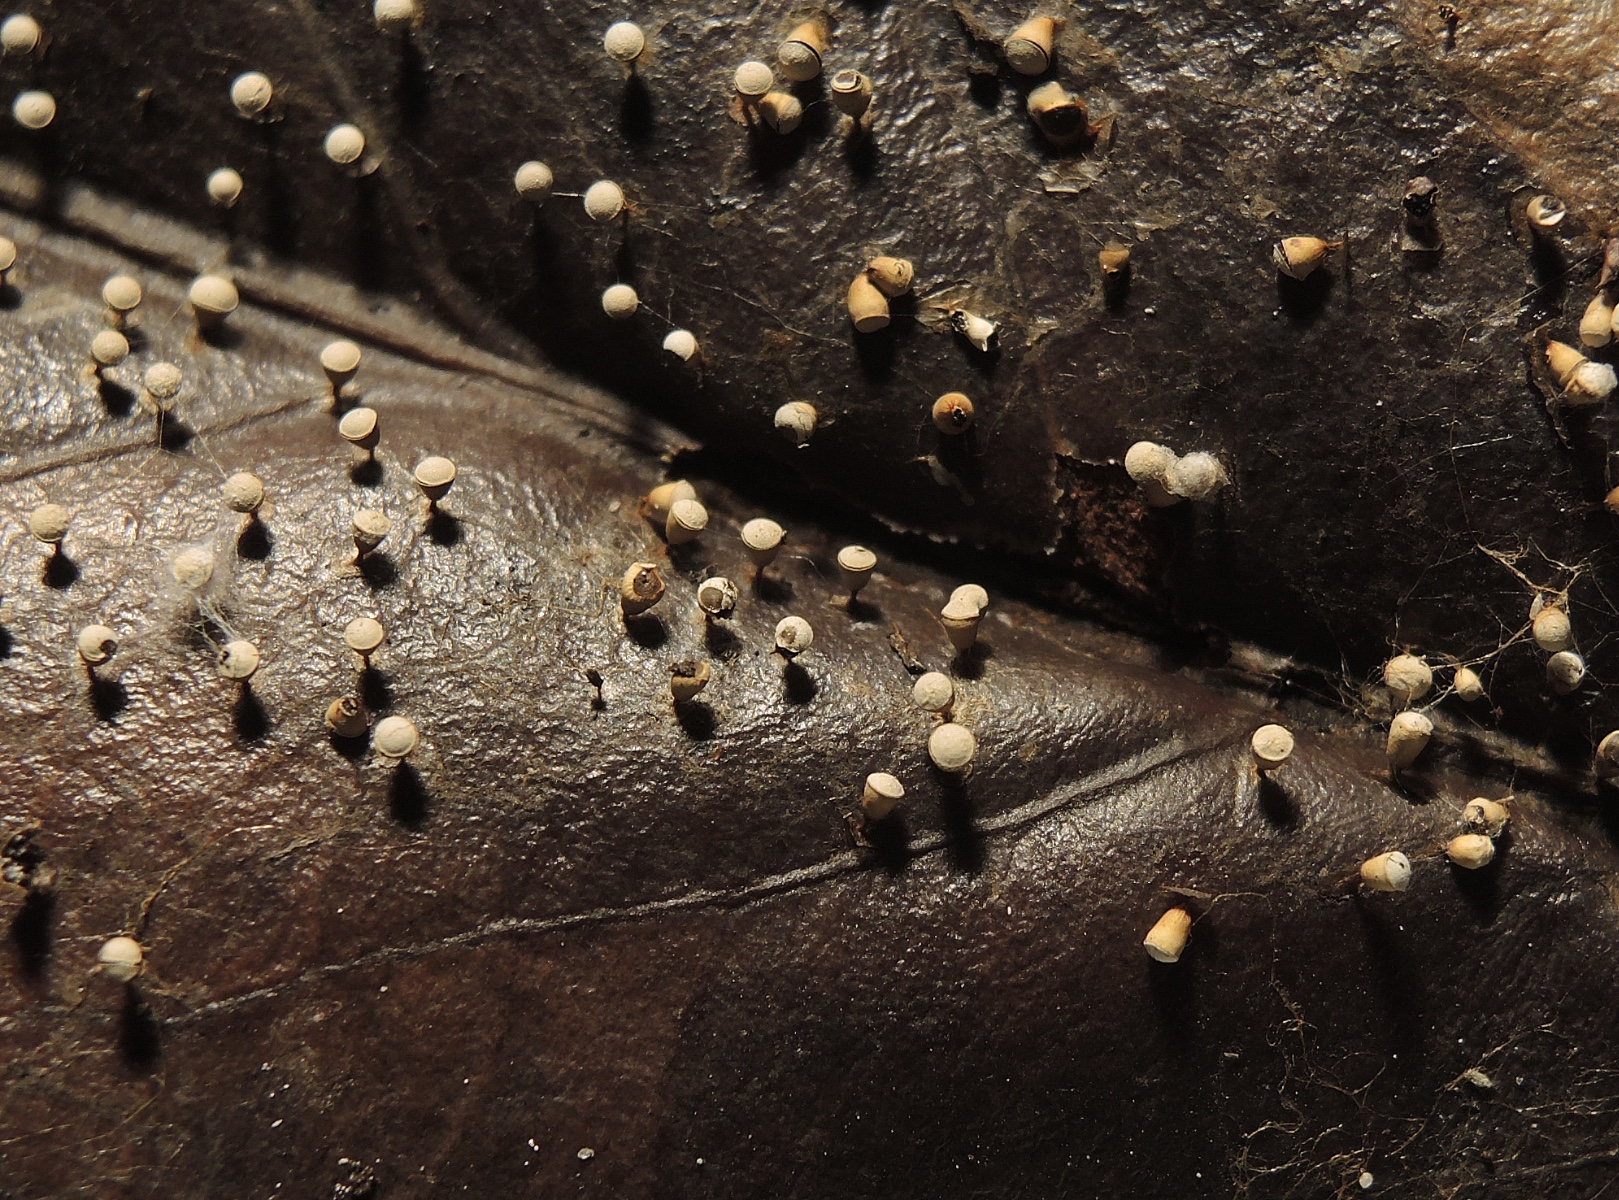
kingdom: Protozoa
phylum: Mycetozoa
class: Myxomycetes
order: Physarales
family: Physaraceae
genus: Craterium
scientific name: Craterium minutum
